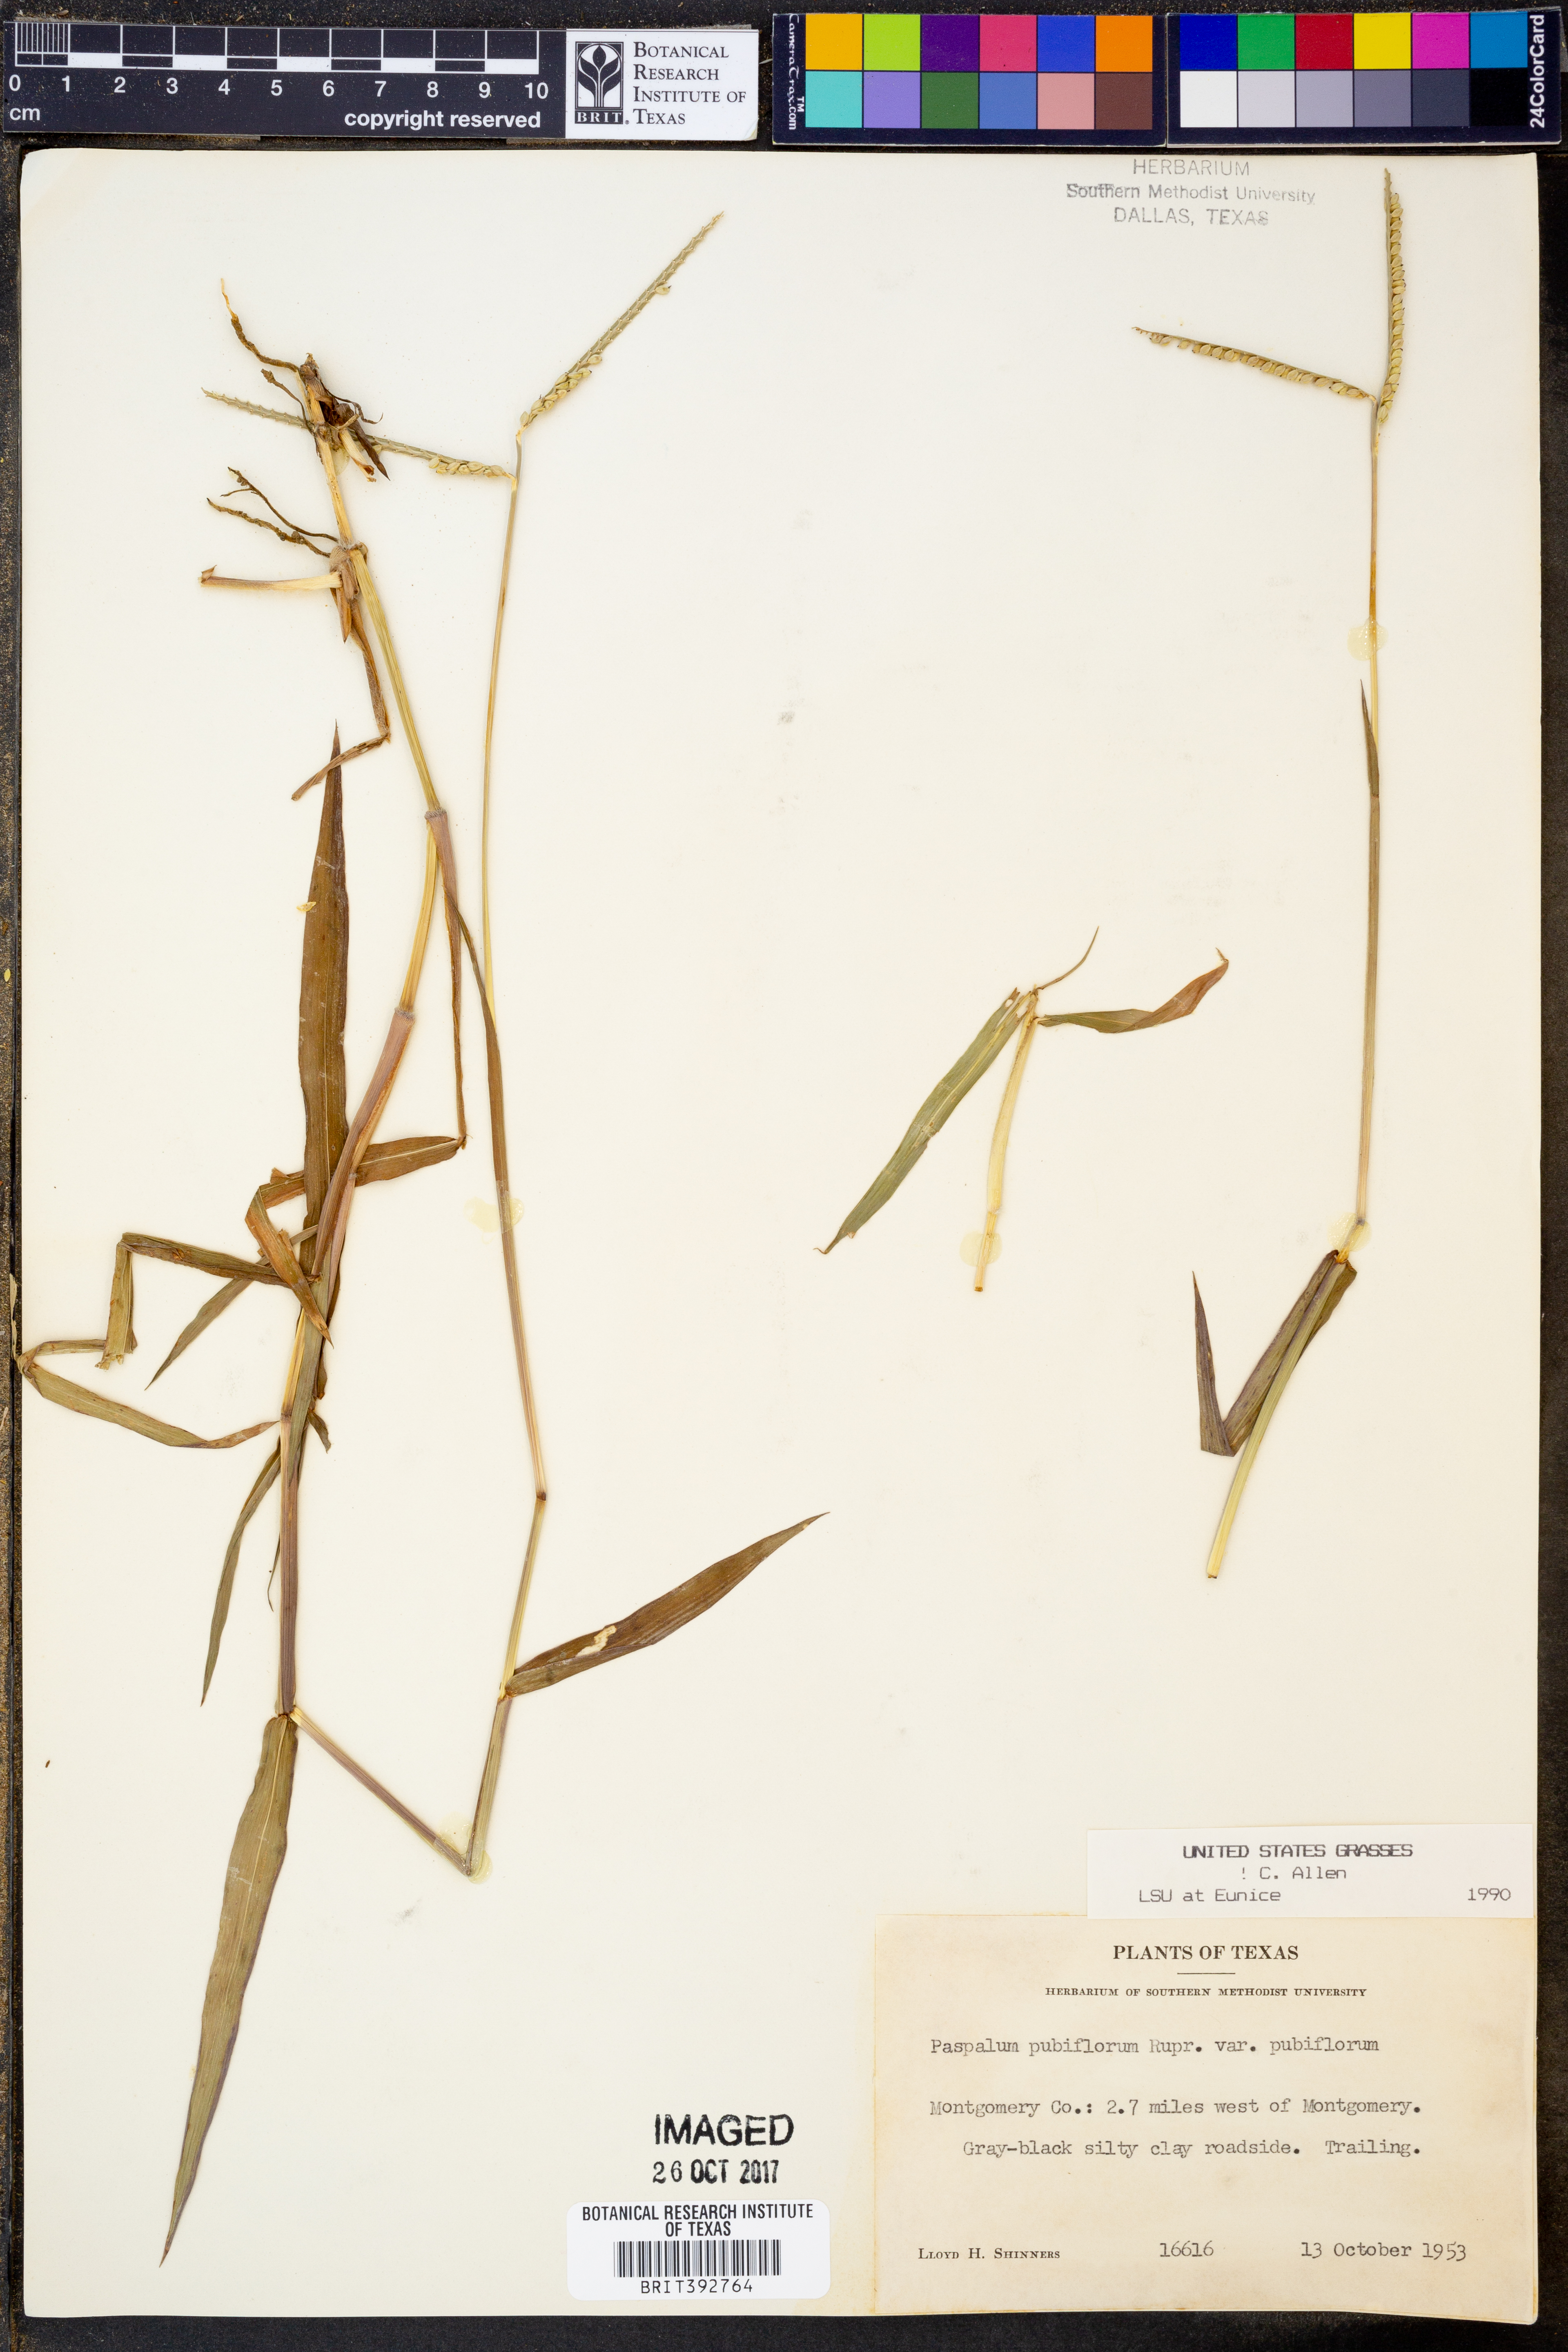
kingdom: Plantae
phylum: Tracheophyta
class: Liliopsida
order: Poales
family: Poaceae
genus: Paspalum
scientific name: Paspalum pubiflorum
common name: Hairy-seed paspalum
